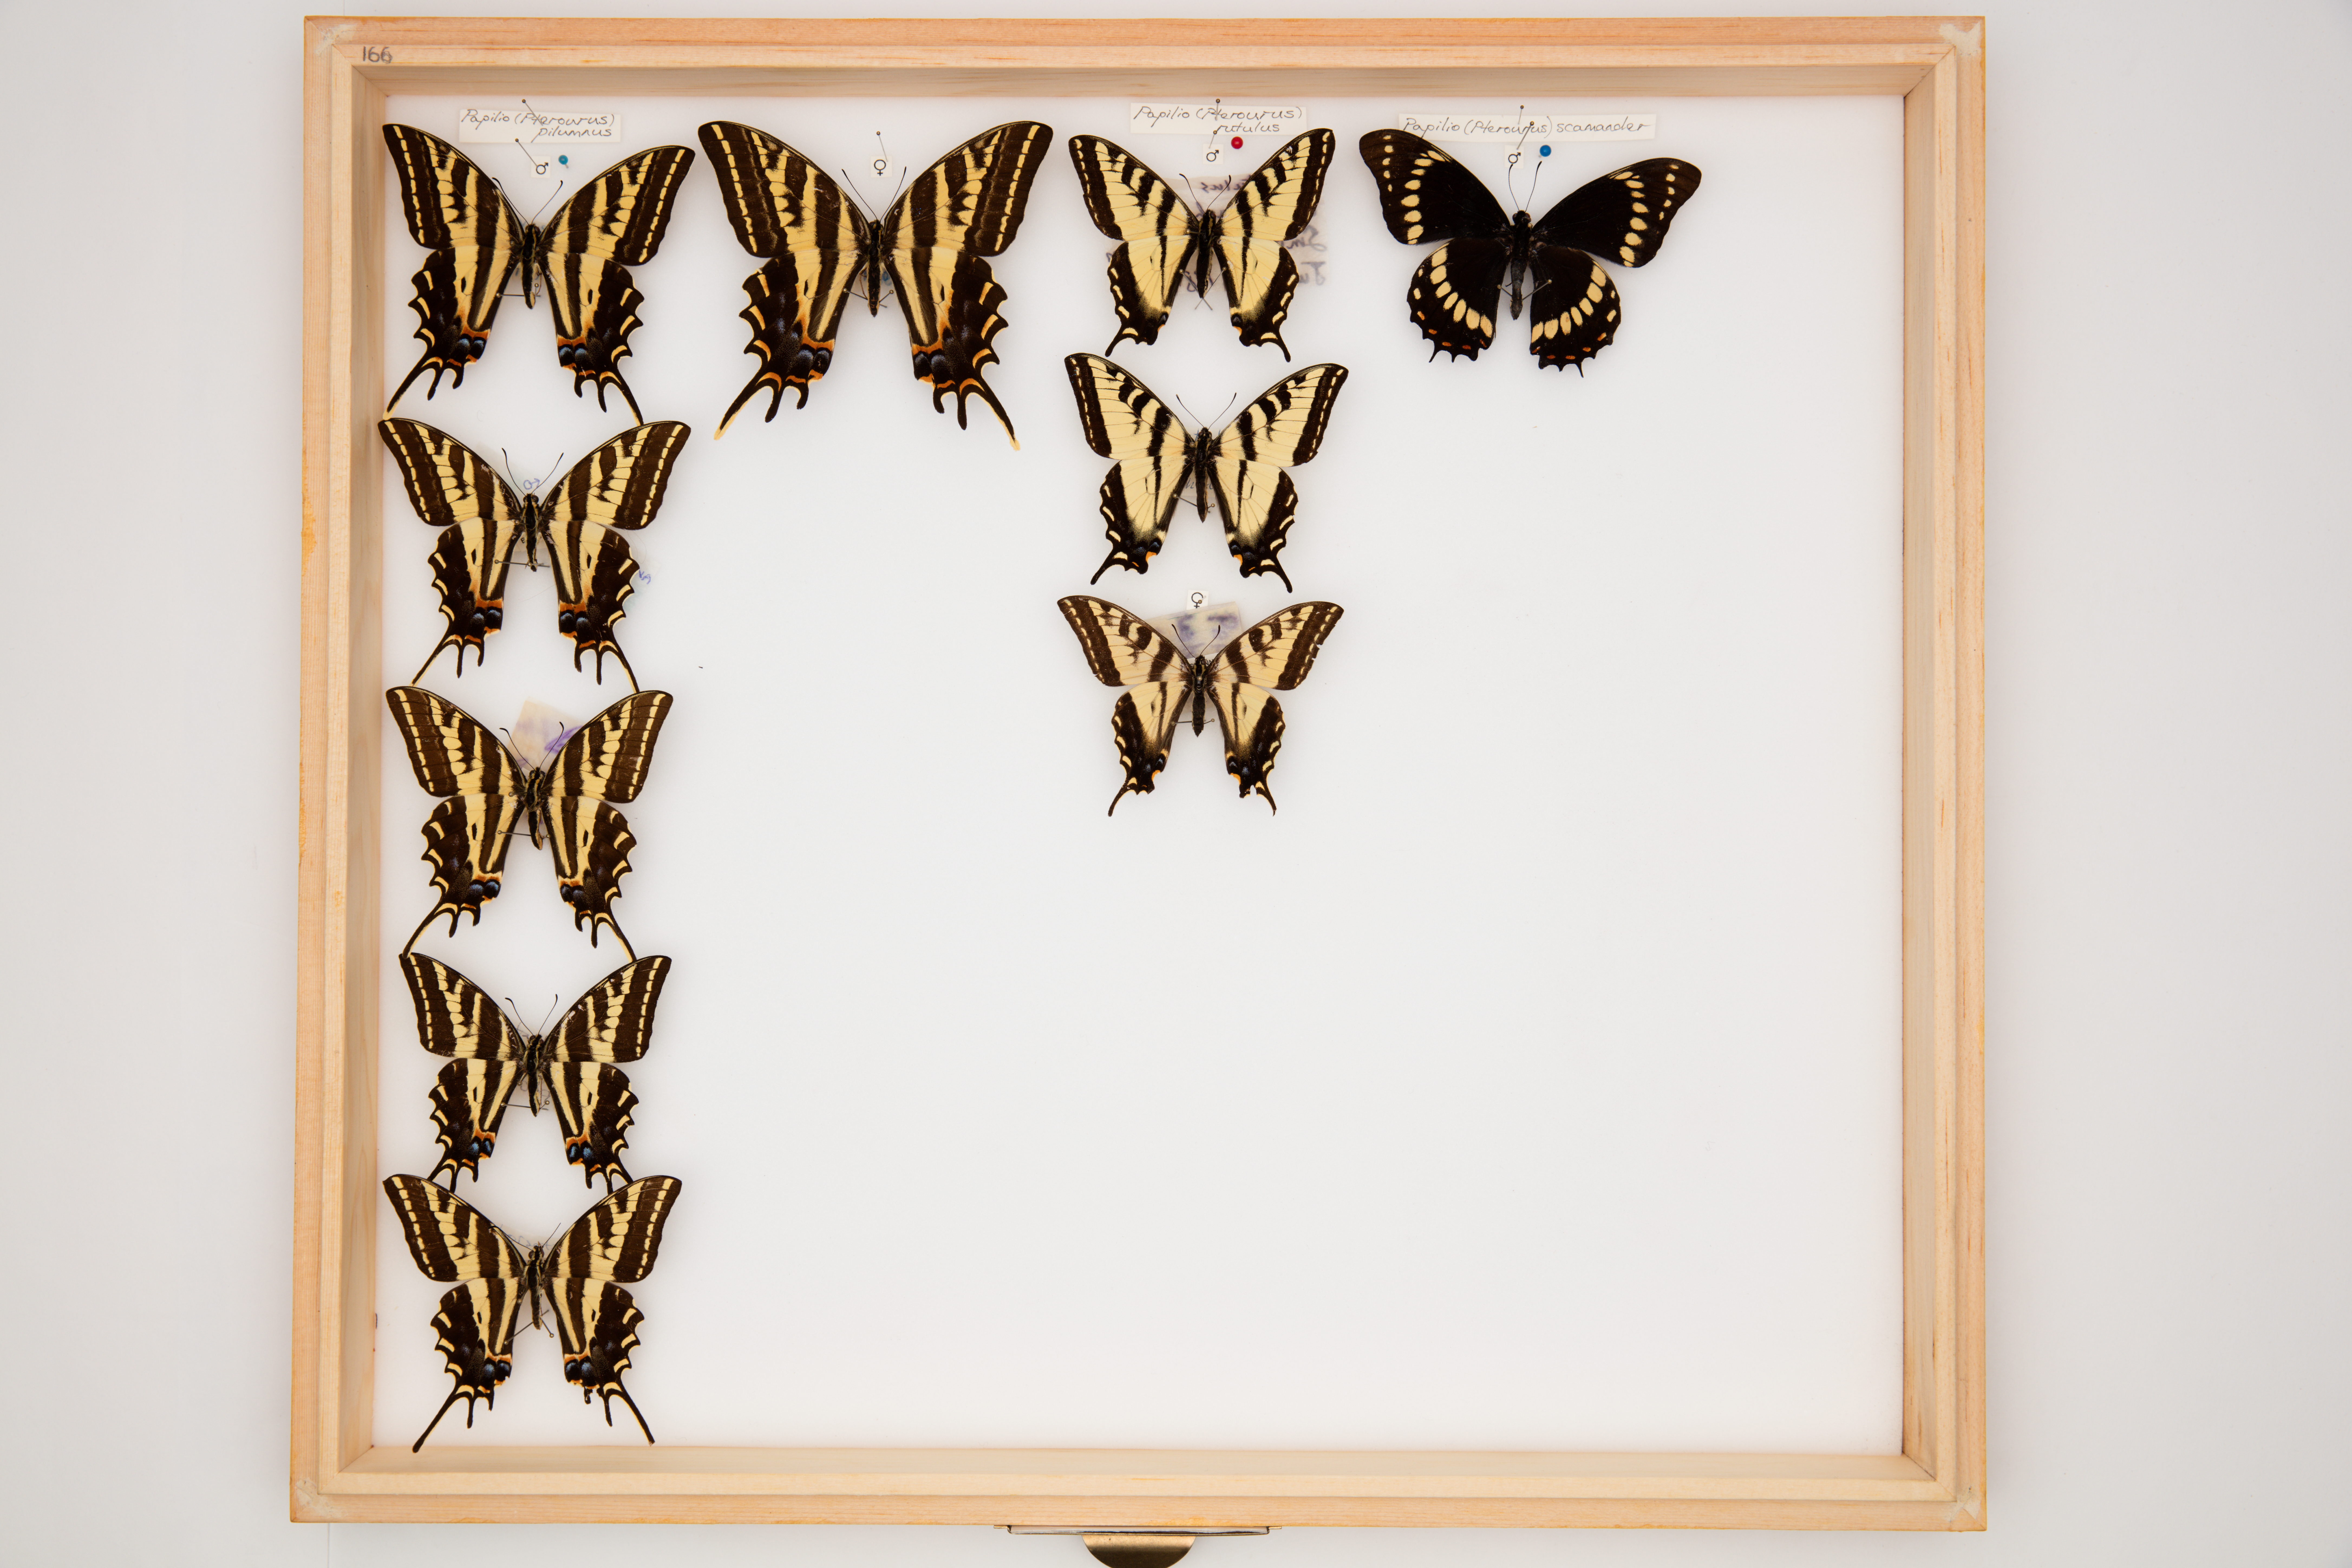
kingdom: Animalia
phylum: Arthropoda
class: Insecta
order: Lepidoptera
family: Papilionidae
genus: Papilio
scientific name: Papilio pilumnus
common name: Three-tailed tiger swallowtail
